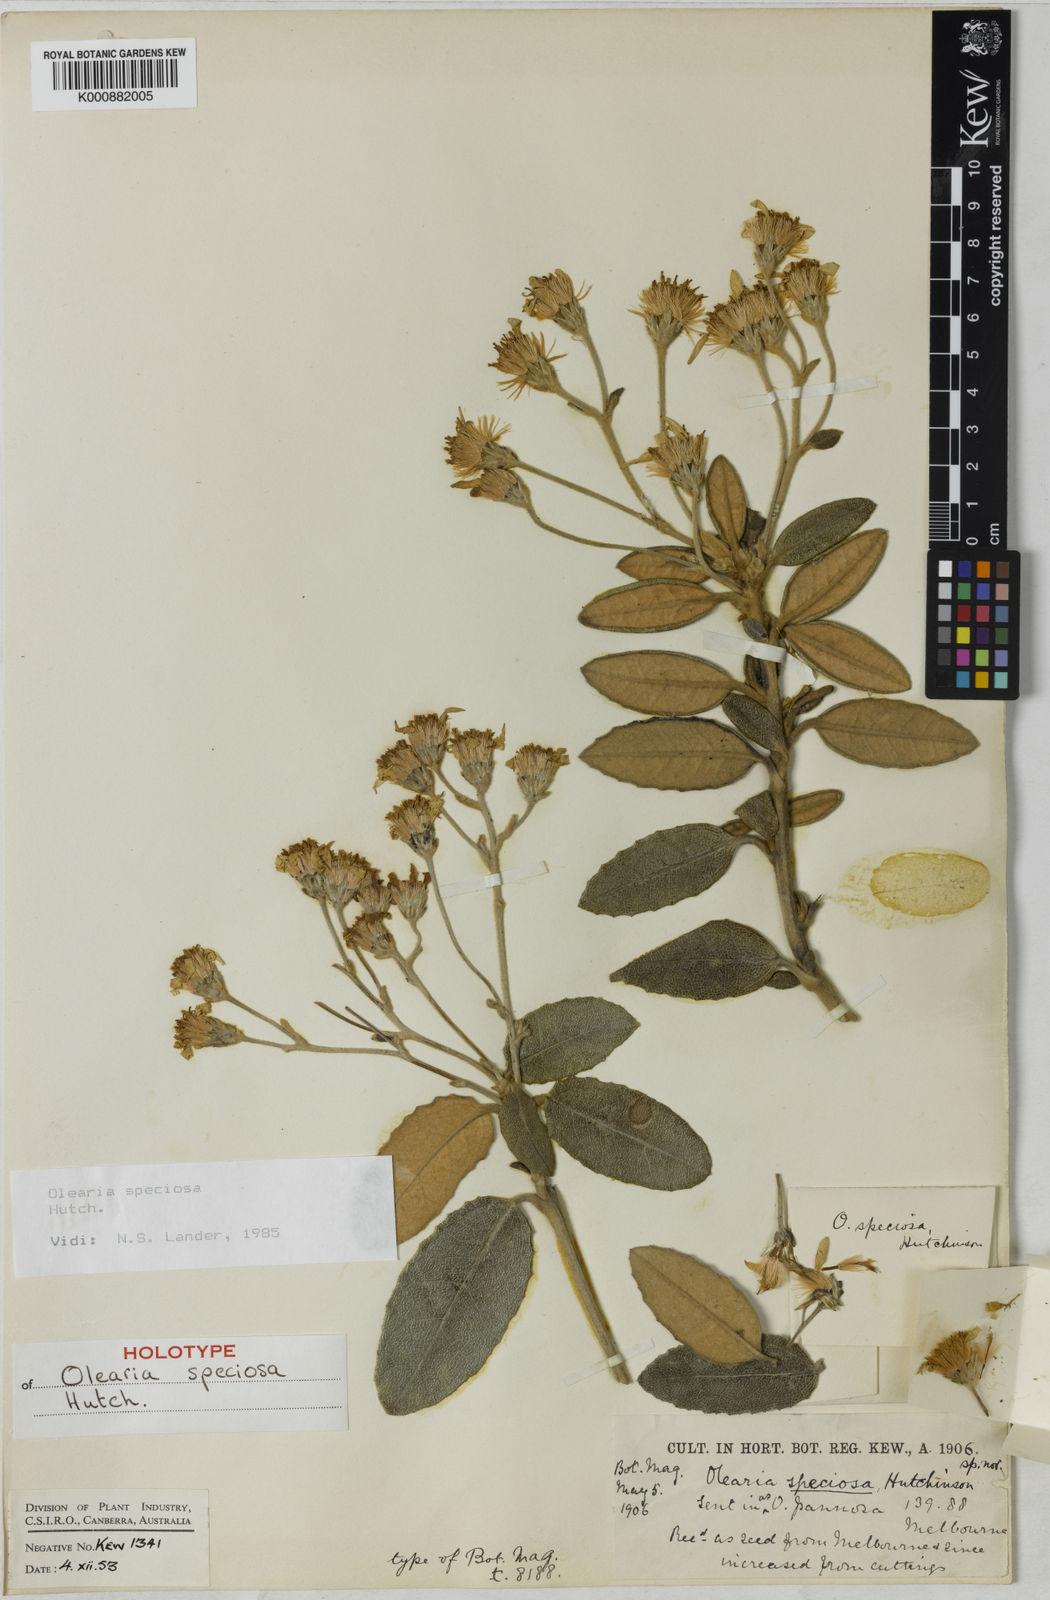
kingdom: Plantae
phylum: Tracheophyta
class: Magnoliopsida
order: Asterales
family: Asteraceae
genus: Olearia
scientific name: Olearia speciosa
